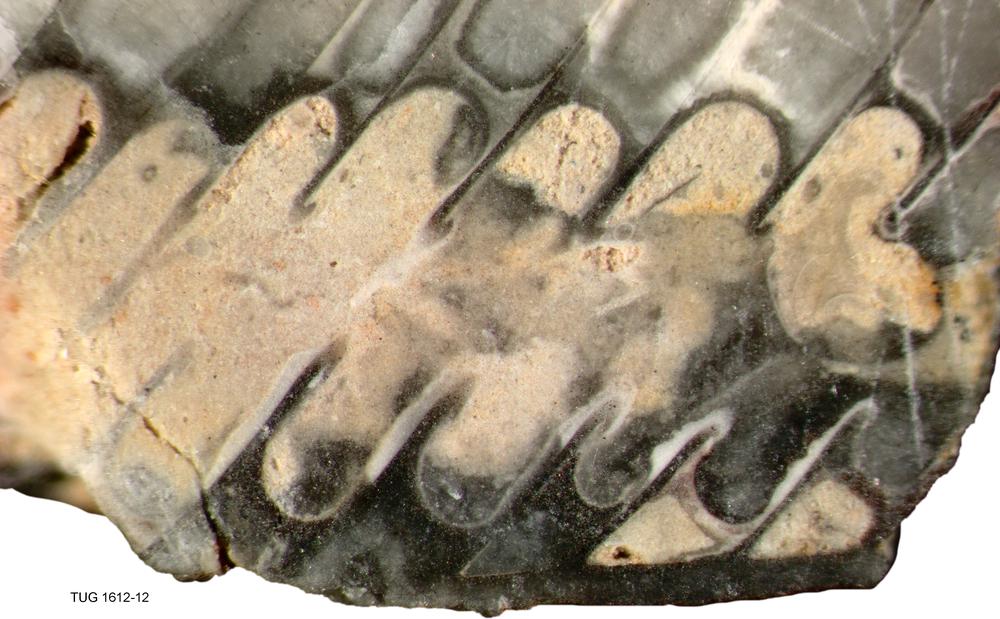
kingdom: Animalia
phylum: Mollusca
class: Cephalopoda
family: Westonoceratidae
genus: Hemibeloitoceras
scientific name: Hemibeloitoceras arduum
